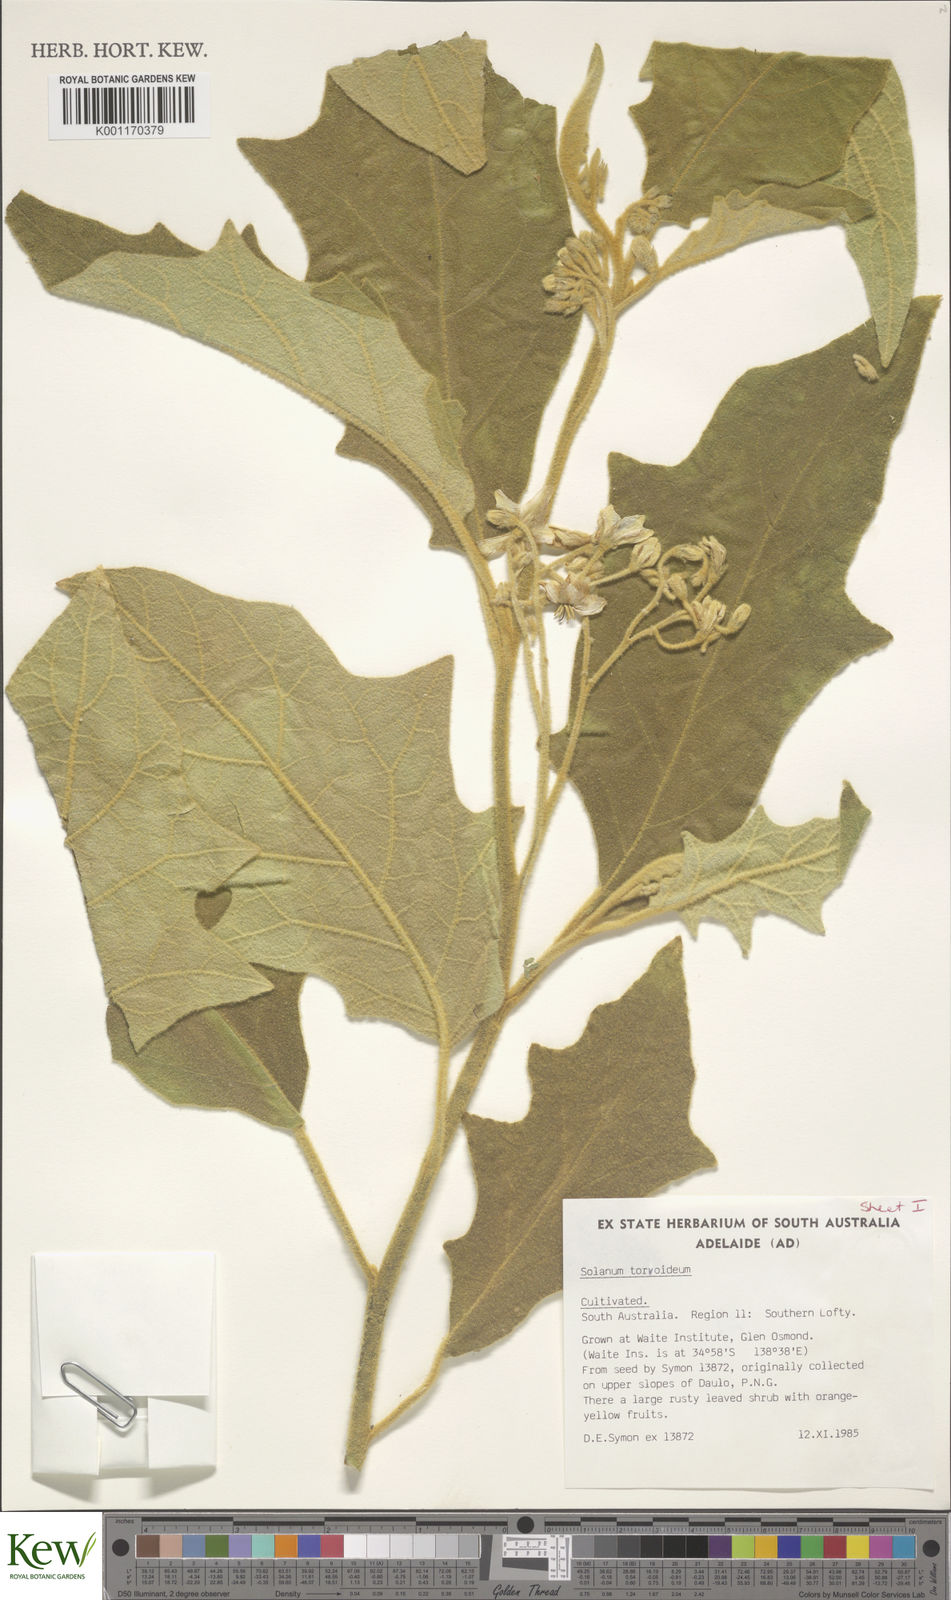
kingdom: Plantae
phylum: Tracheophyta
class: Magnoliopsida
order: Solanales
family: Solanaceae
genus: Solanum
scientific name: Solanum torvoideum
